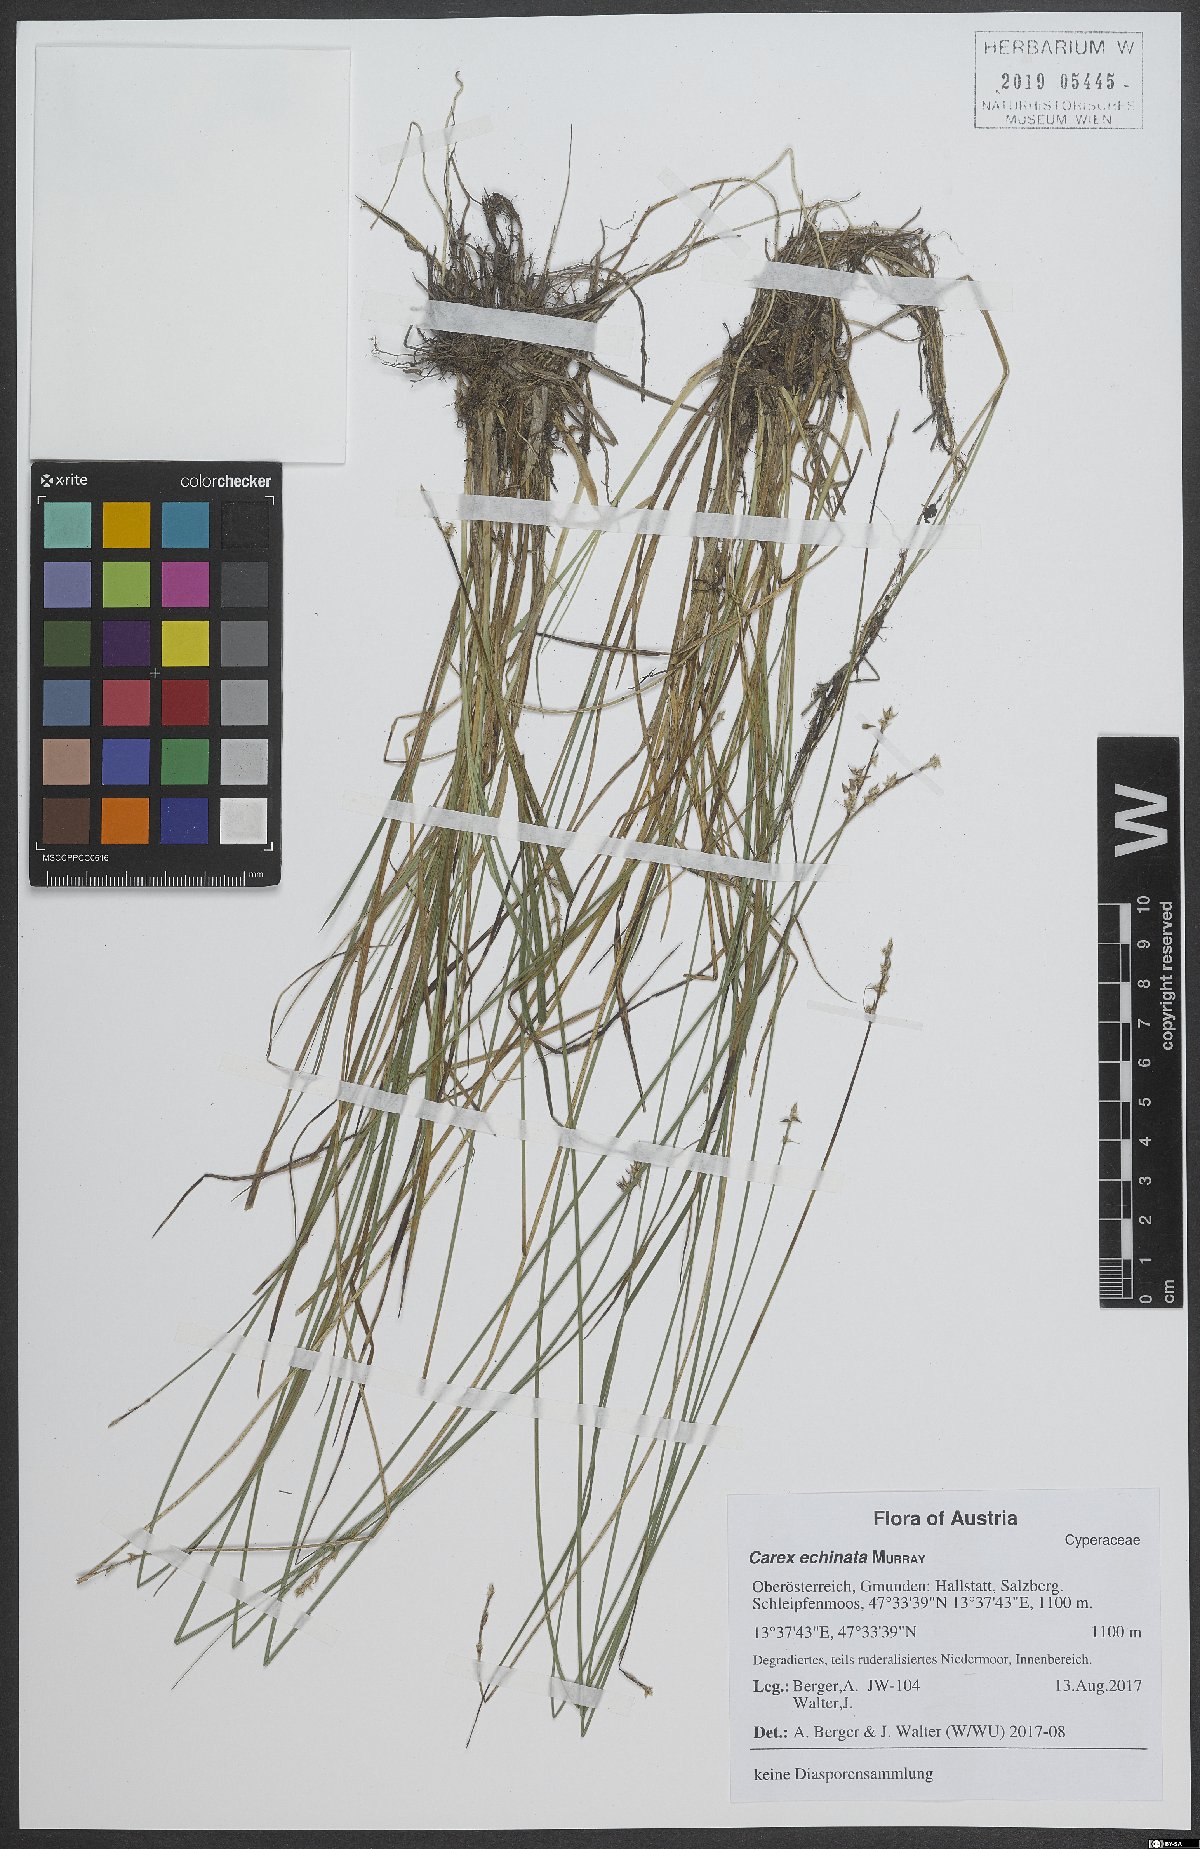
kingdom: Plantae
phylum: Tracheophyta
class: Liliopsida
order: Poales
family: Cyperaceae
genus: Carex
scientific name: Carex echinata
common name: Star sedge
